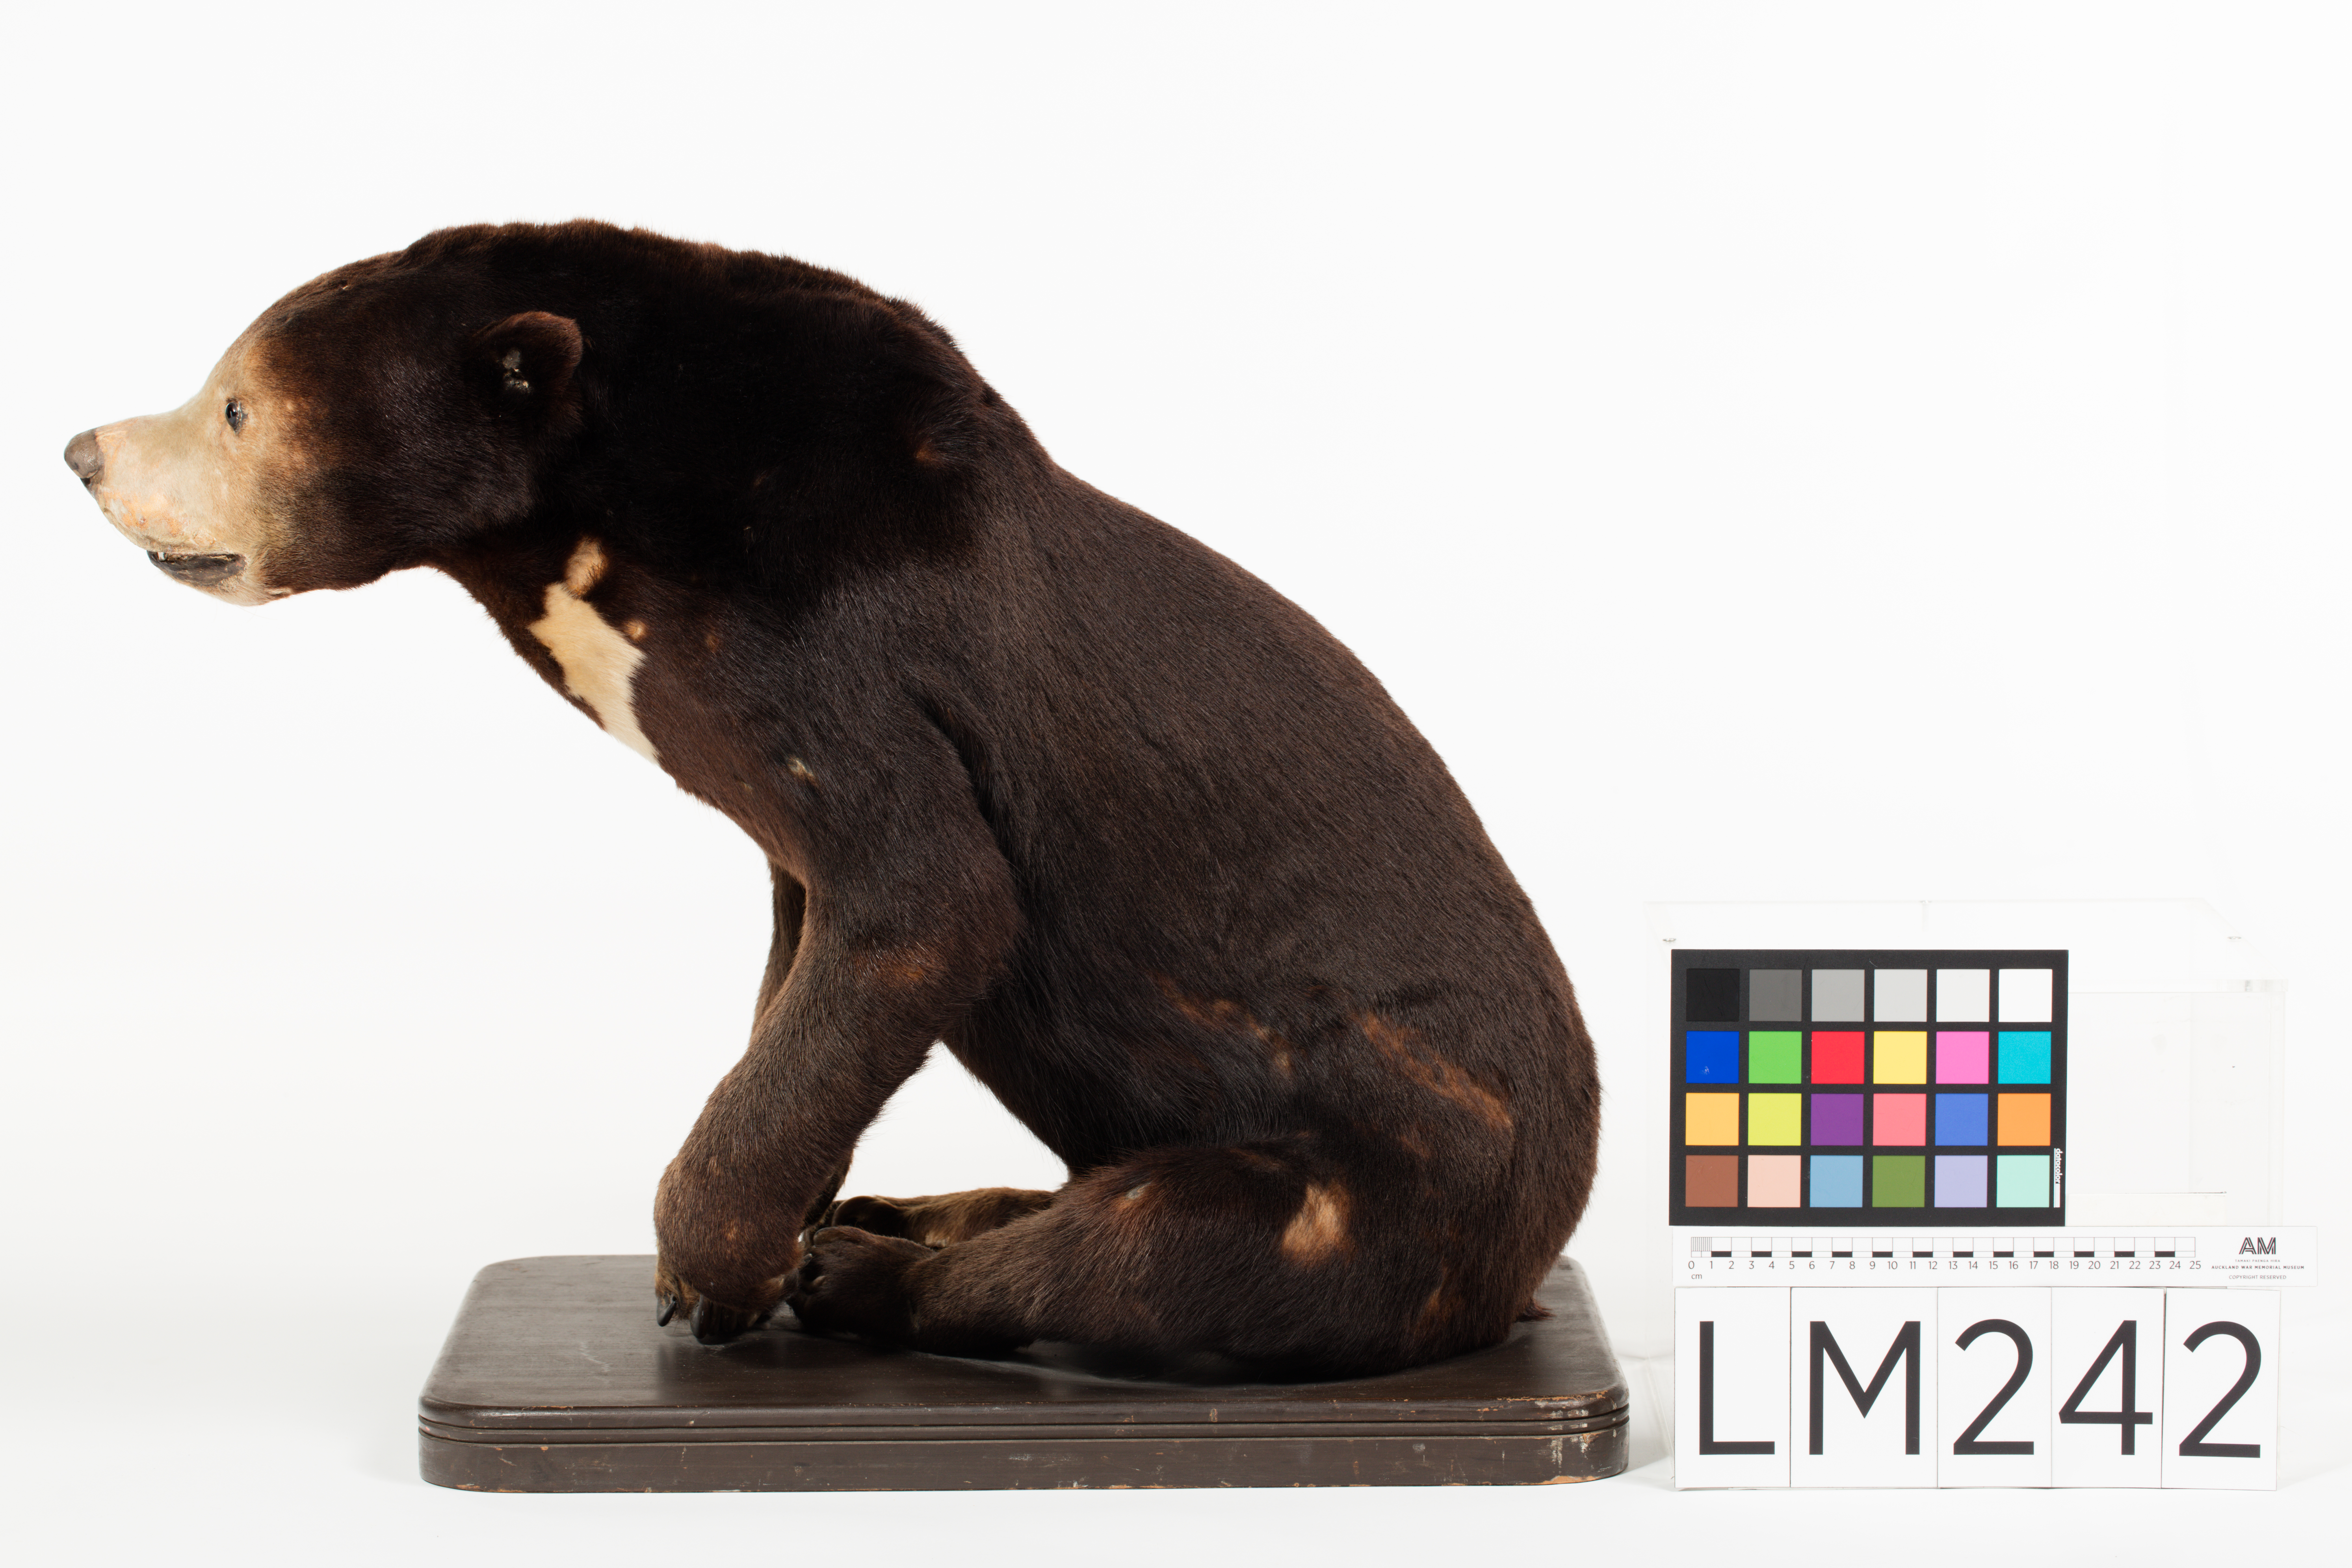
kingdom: Animalia
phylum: Chordata
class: Mammalia
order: Carnivora
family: Ursidae
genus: Helarctos
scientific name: Helarctos malayanus
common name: Sun bear
